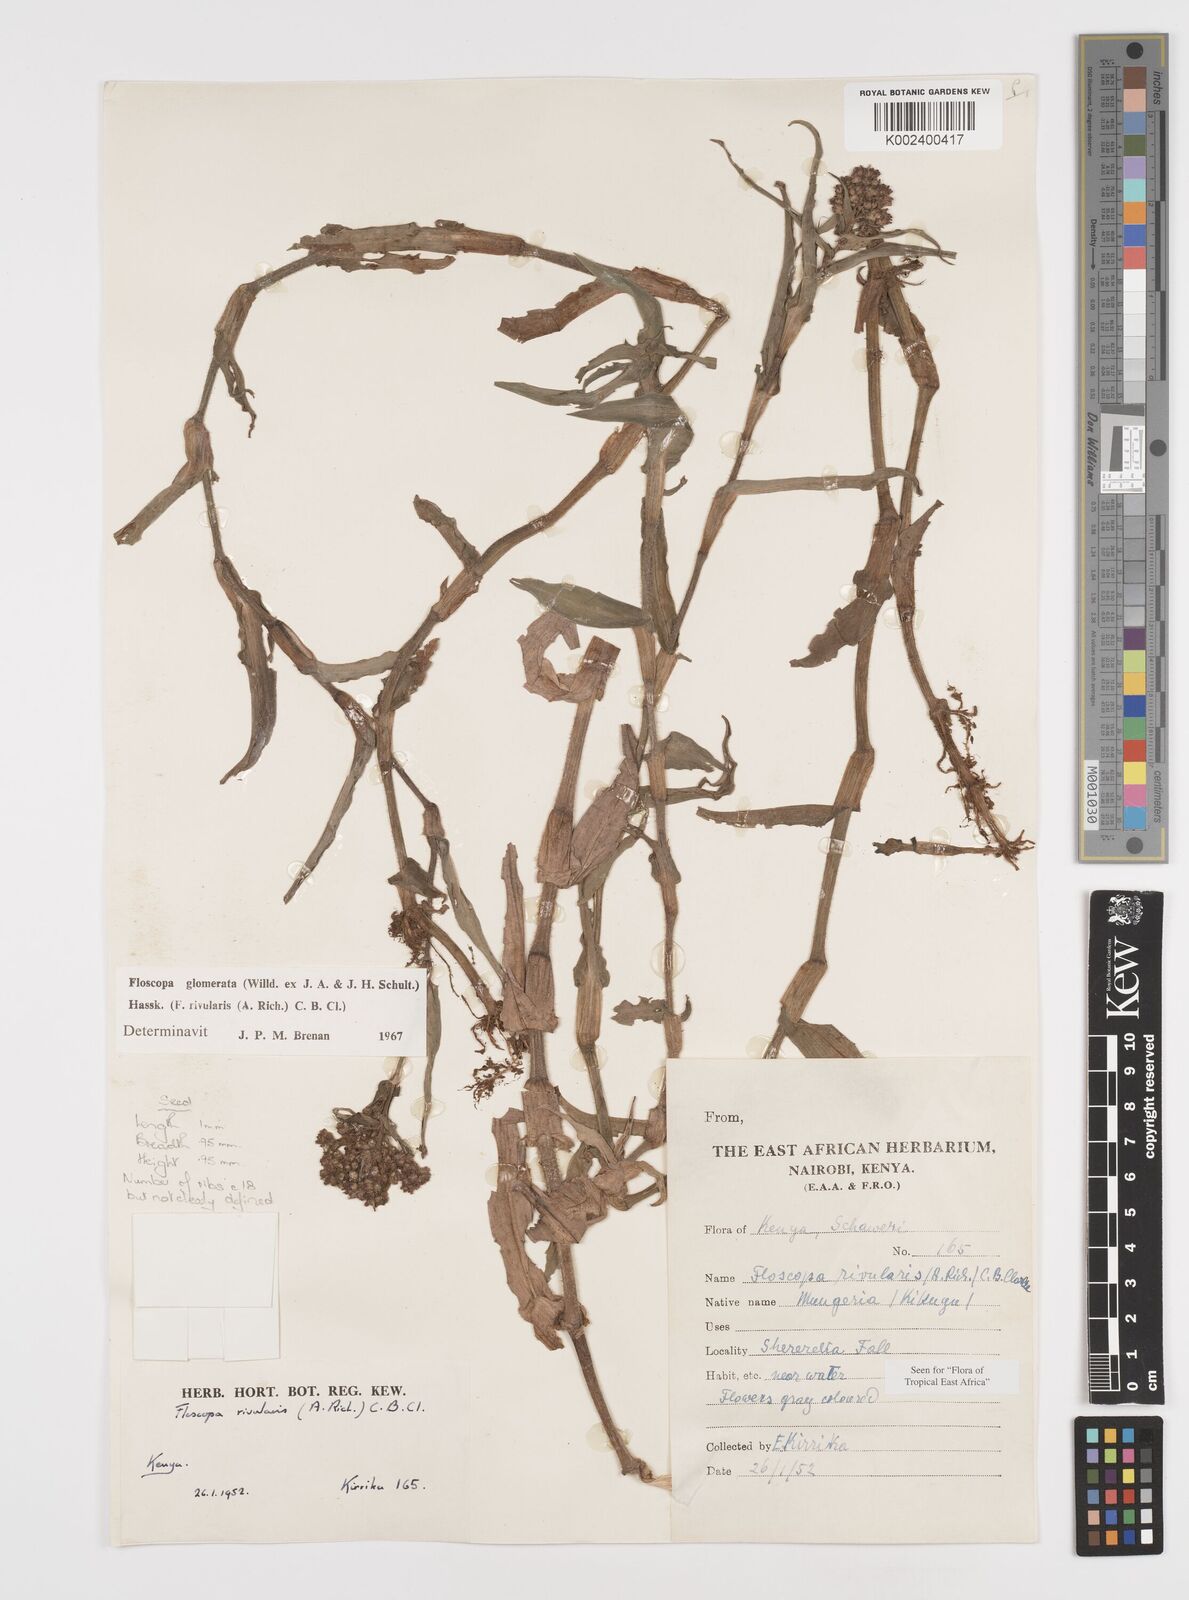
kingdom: Plantae
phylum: Tracheophyta
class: Liliopsida
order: Commelinales
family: Commelinaceae
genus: Floscopa
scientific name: Floscopa glomerata
